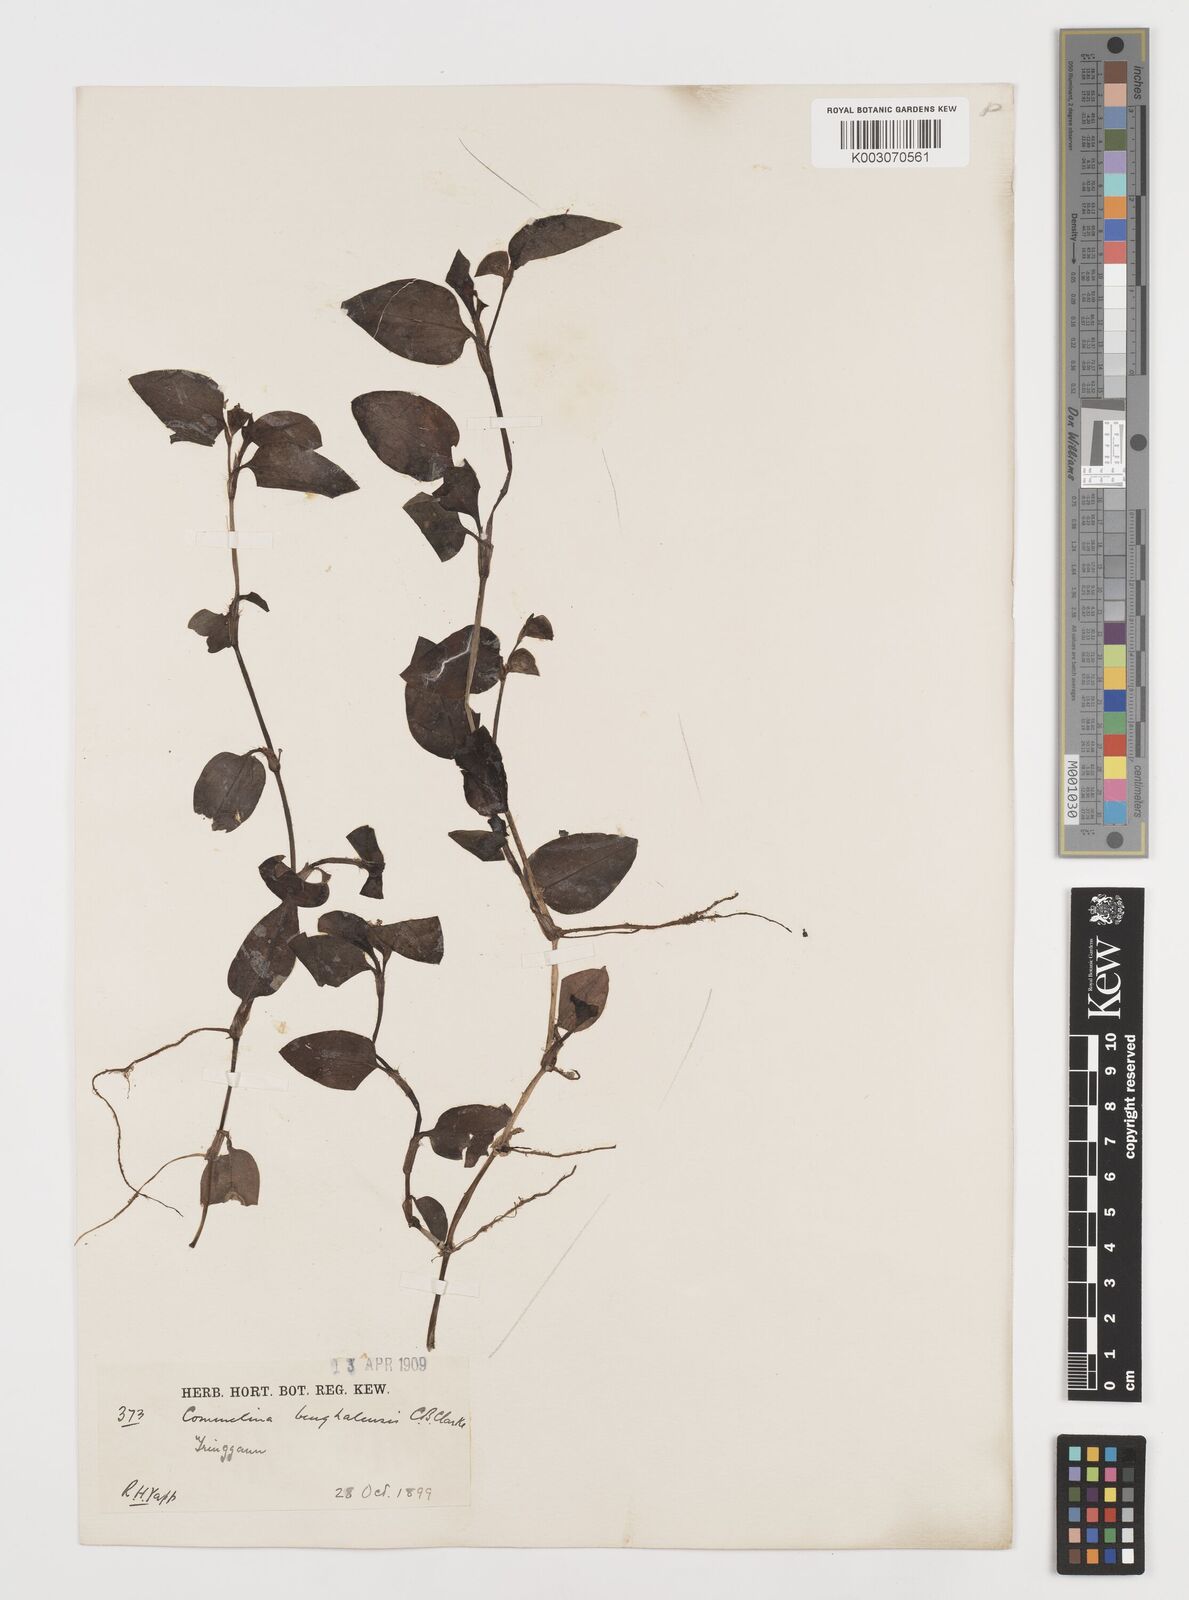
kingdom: Plantae
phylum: Tracheophyta
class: Liliopsida
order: Commelinales
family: Commelinaceae
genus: Commelina
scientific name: Commelina benghalensis
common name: Jio
